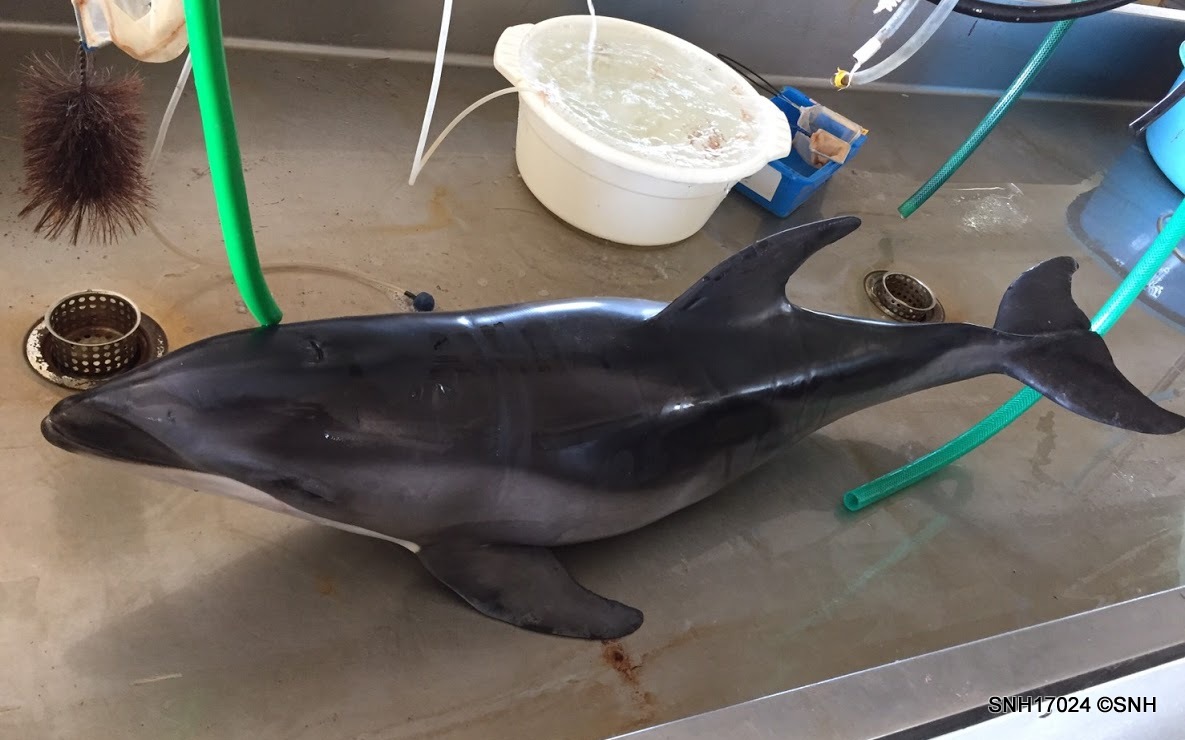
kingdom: Animalia
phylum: Chordata
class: Mammalia
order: Cetacea
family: Delphinidae
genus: Lagenorhynchus
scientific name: Lagenorhynchus obliquidens
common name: Pacific white-sided dolphin
